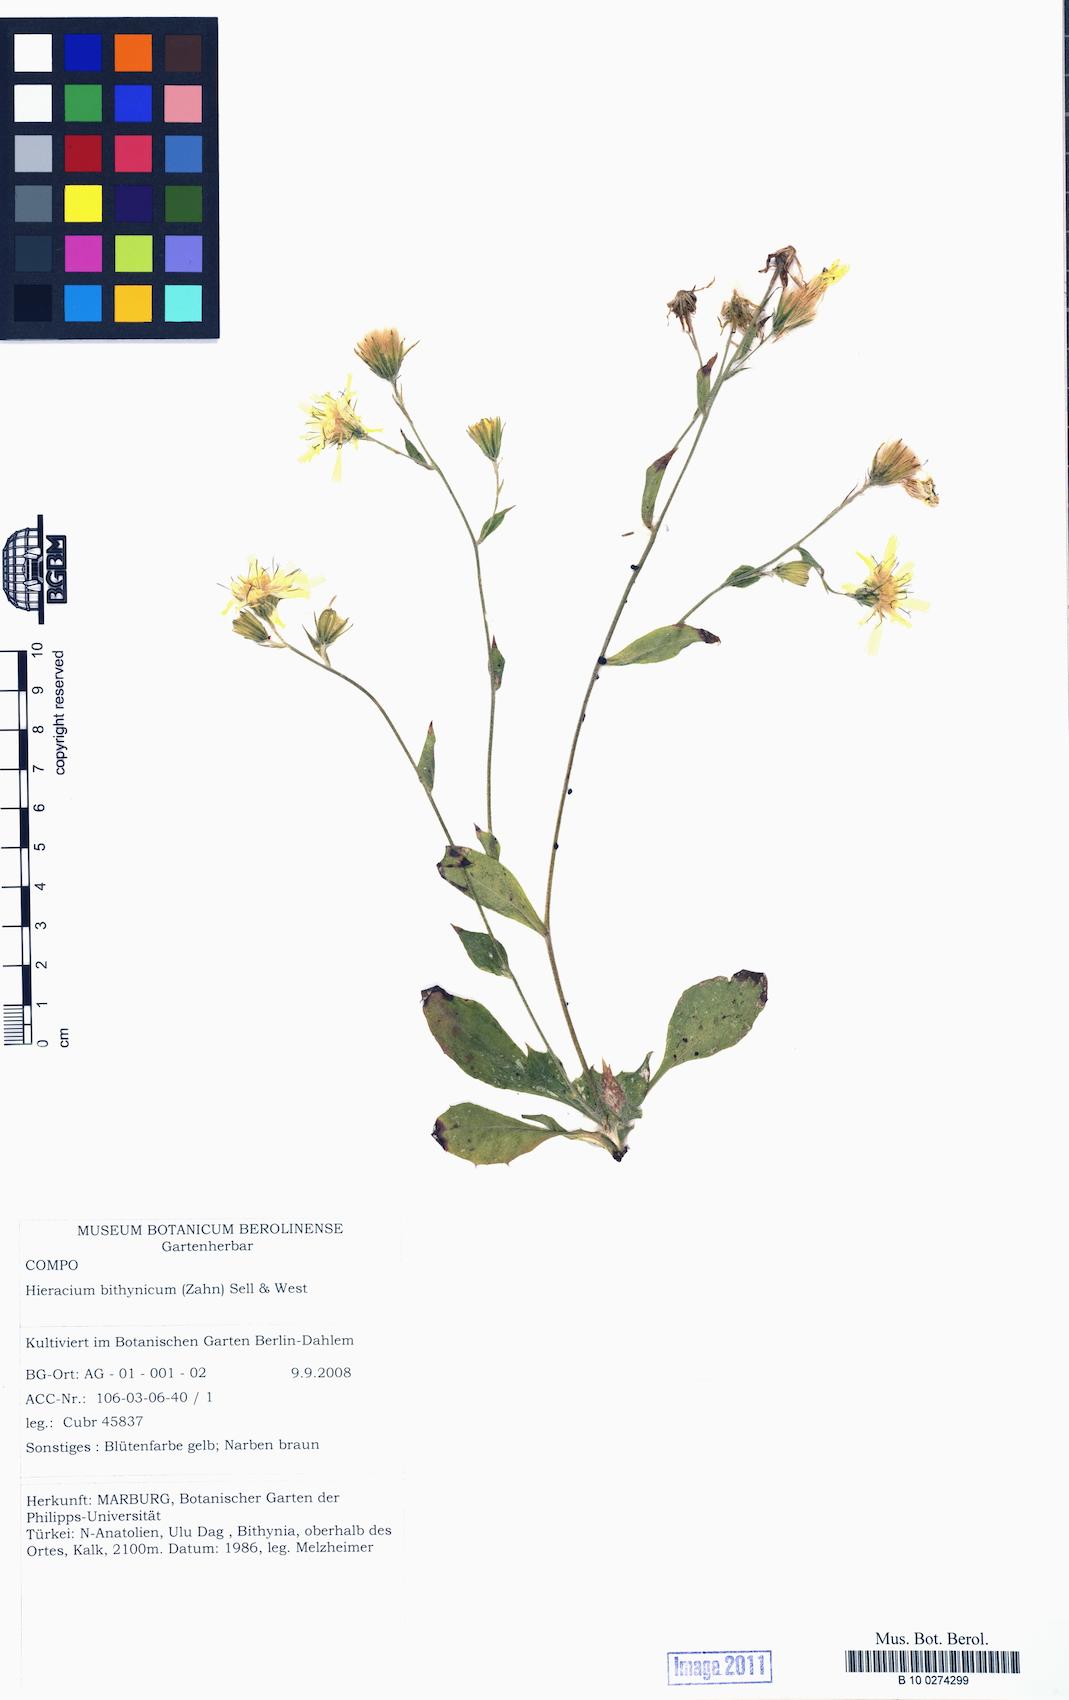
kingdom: Plantae
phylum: Tracheophyta
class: Magnoliopsida
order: Asterales
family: Asteraceae
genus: Hieracium
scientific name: Hieracium murorum
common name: Wall hawkweed
